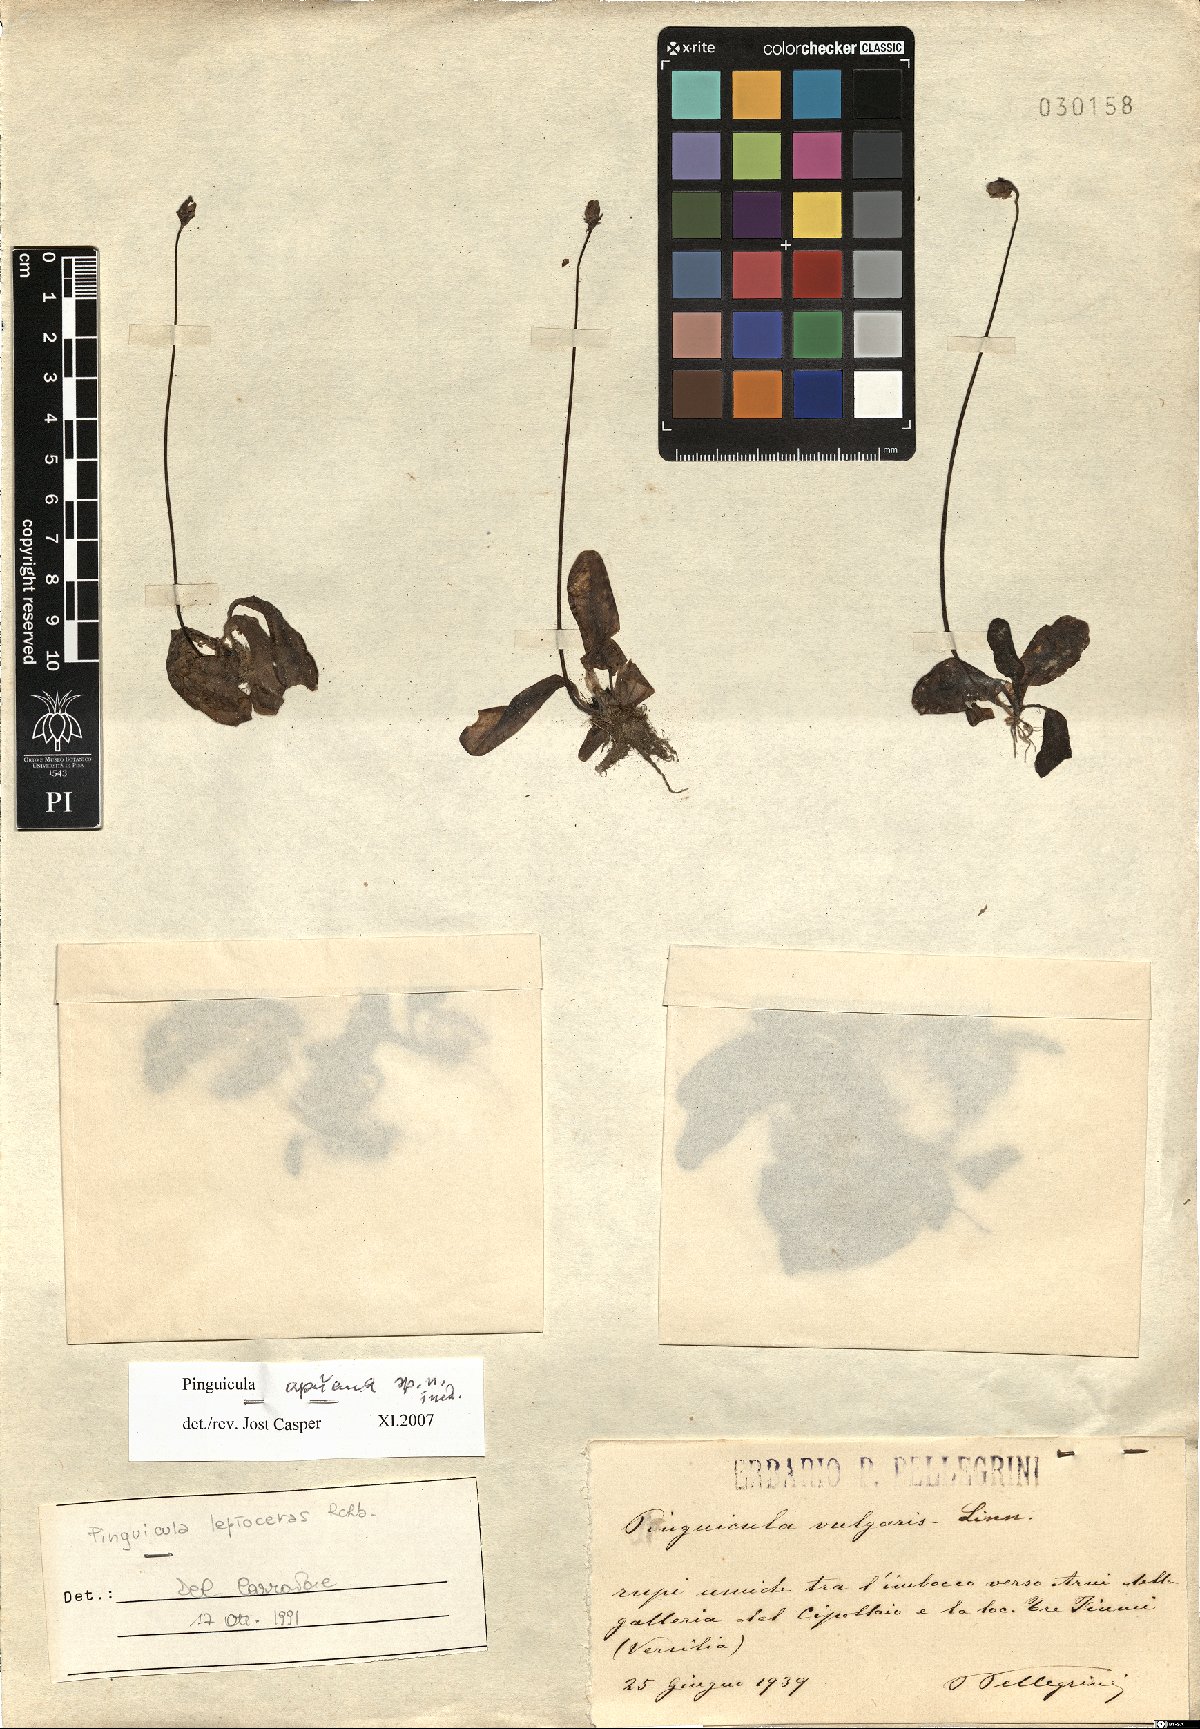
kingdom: Plantae
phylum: Tracheophyta
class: Magnoliopsida
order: Lamiales
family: Lentibulariaceae
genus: Pinguicula
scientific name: Pinguicula apuana
